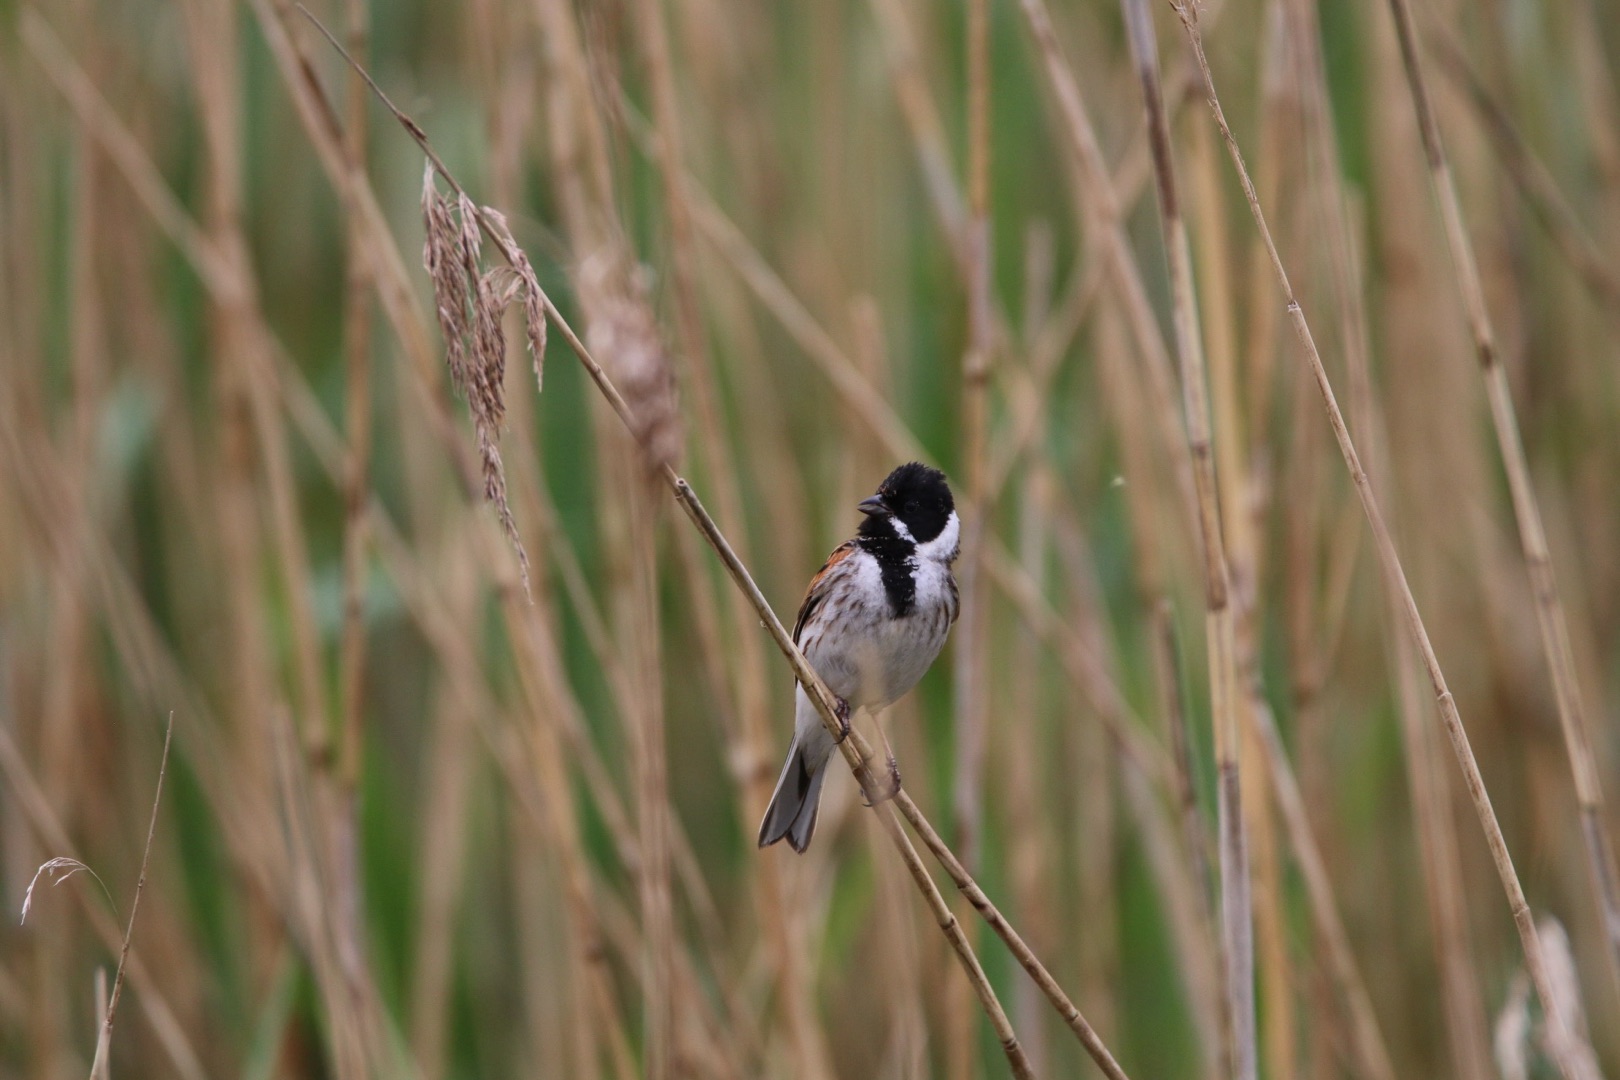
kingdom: Animalia
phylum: Chordata
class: Aves
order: Passeriformes
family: Emberizidae
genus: Emberiza
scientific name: Emberiza schoeniclus
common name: Rørspurv
